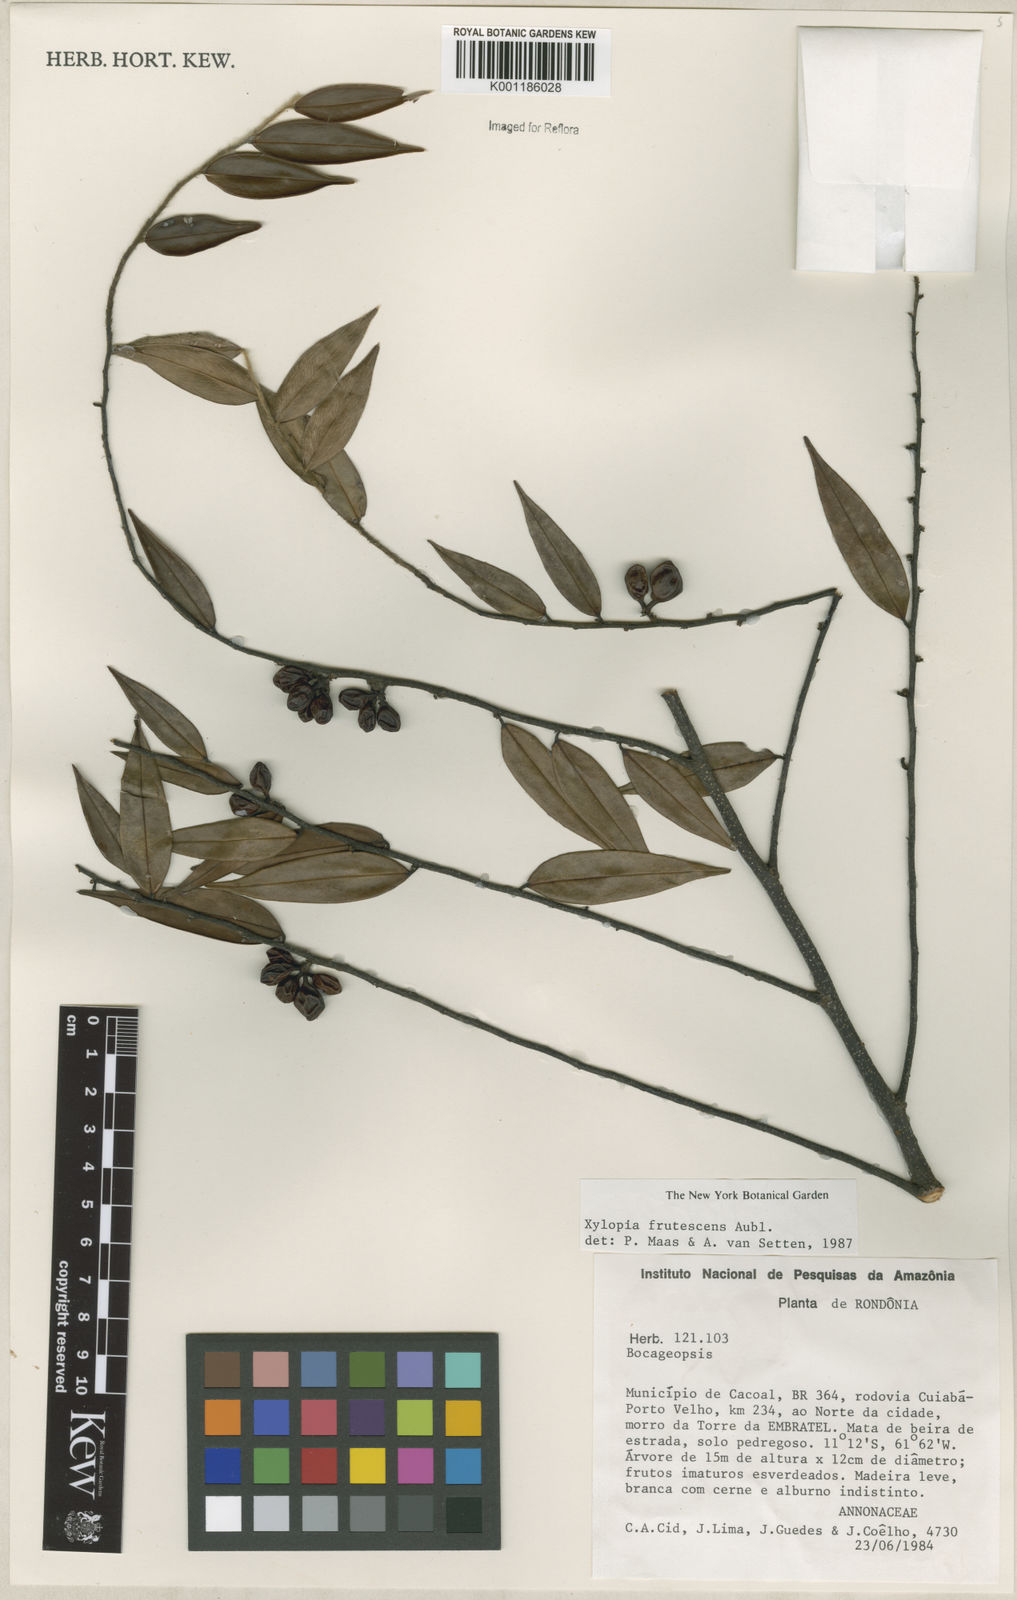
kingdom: Plantae
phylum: Tracheophyta
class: Magnoliopsida
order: Magnoliales
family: Annonaceae
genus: Xylopia
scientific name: Xylopia frutescens
